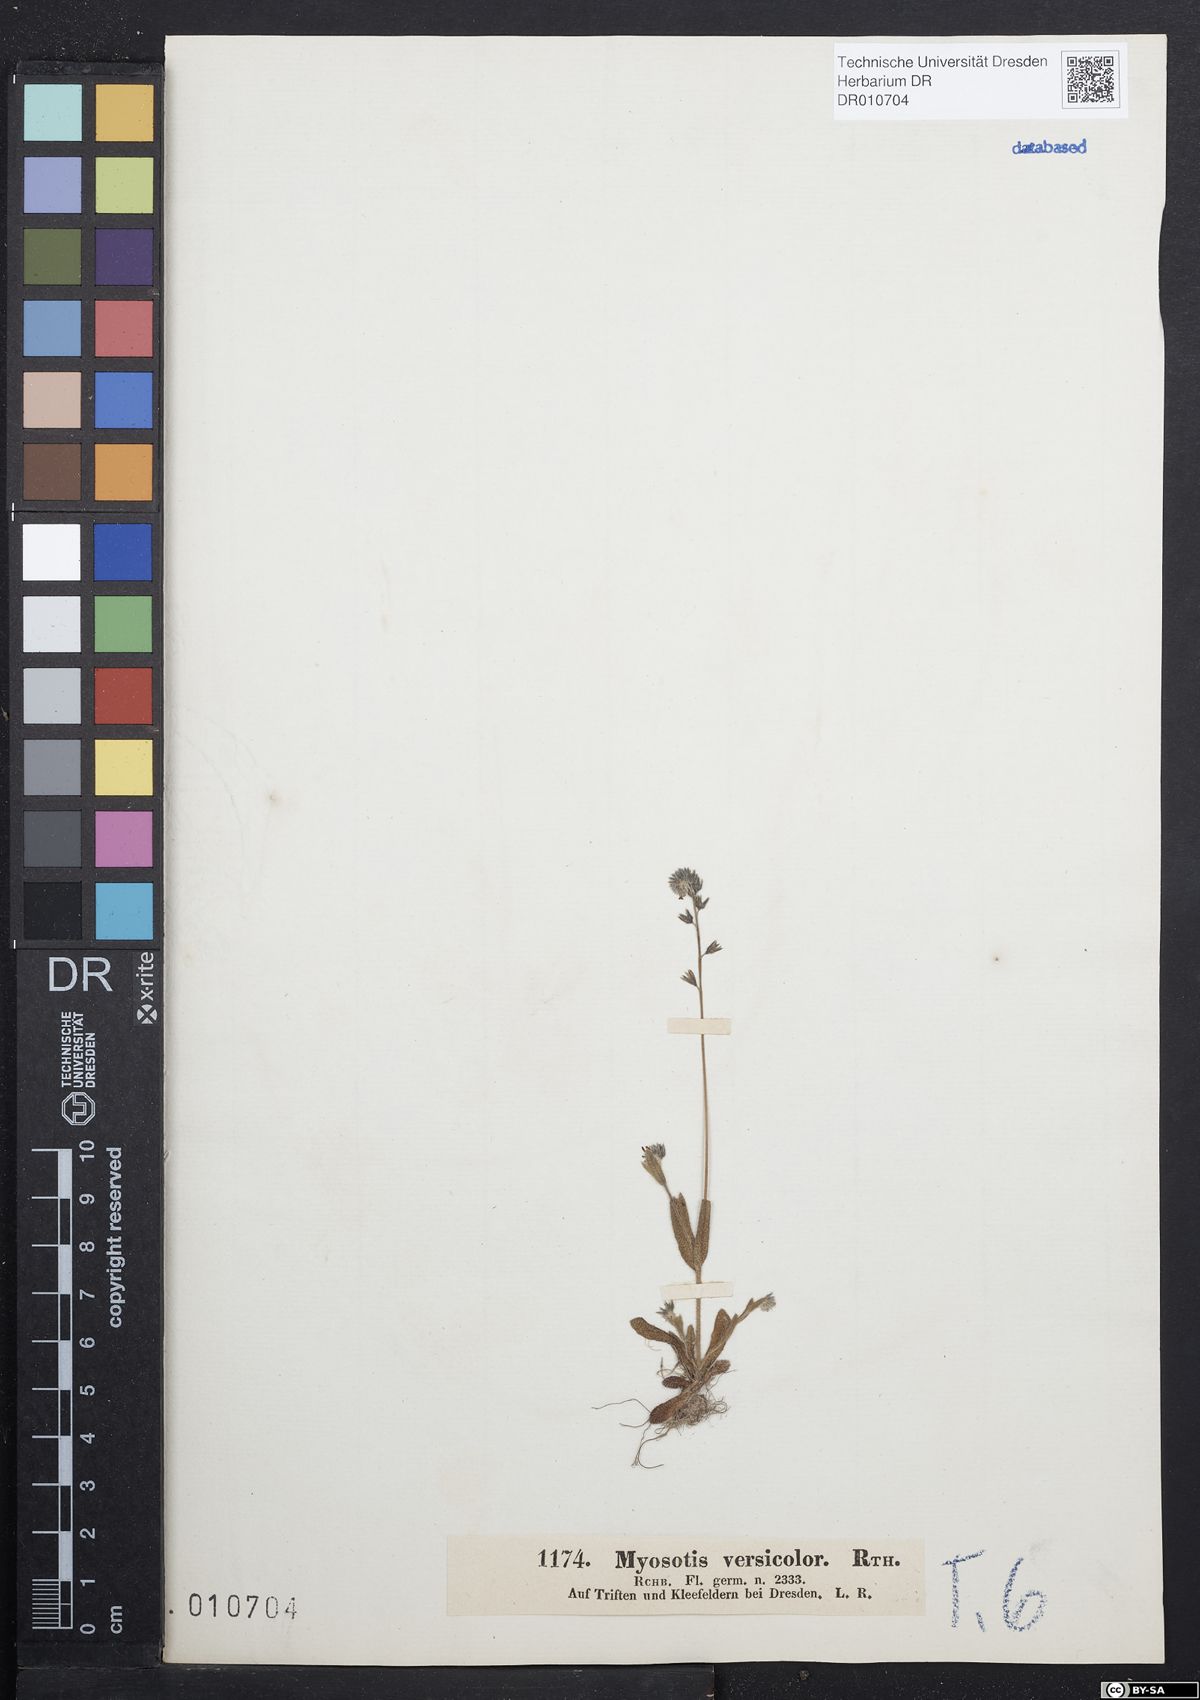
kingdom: Plantae
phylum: Tracheophyta
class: Magnoliopsida
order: Boraginales
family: Boraginaceae
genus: Myosotis
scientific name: Myosotis discolor
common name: Changing forget-me-not
